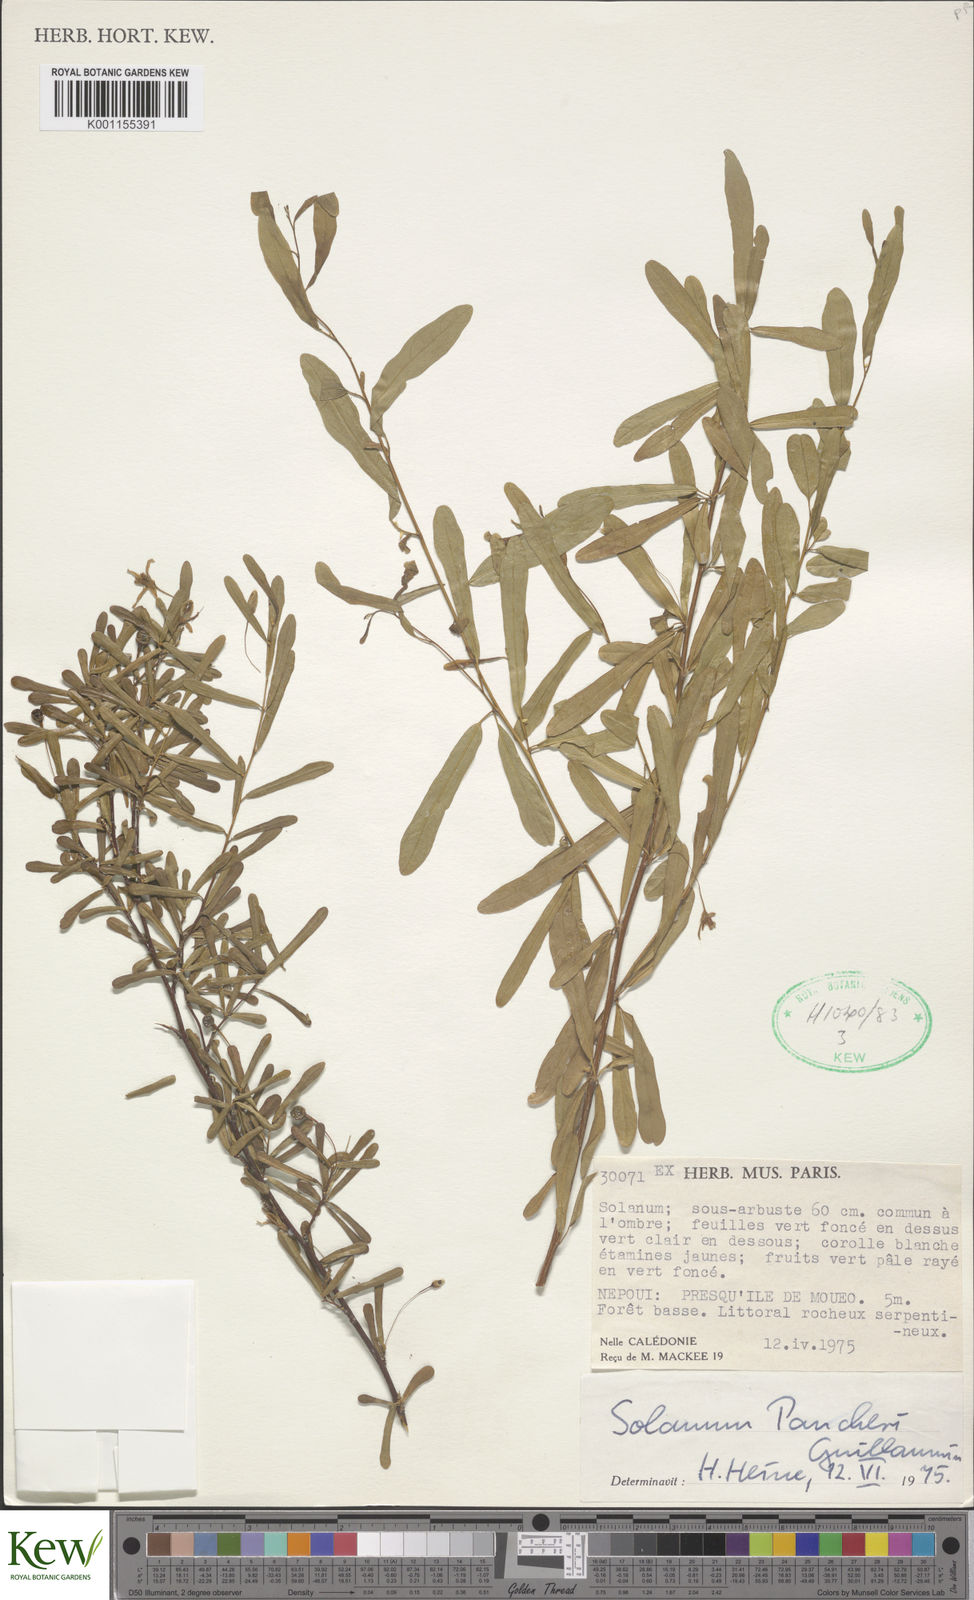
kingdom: Plantae
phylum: Tracheophyta
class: Magnoliopsida
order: Solanales
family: Solanaceae
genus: Solanum
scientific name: Solanum pancheri
